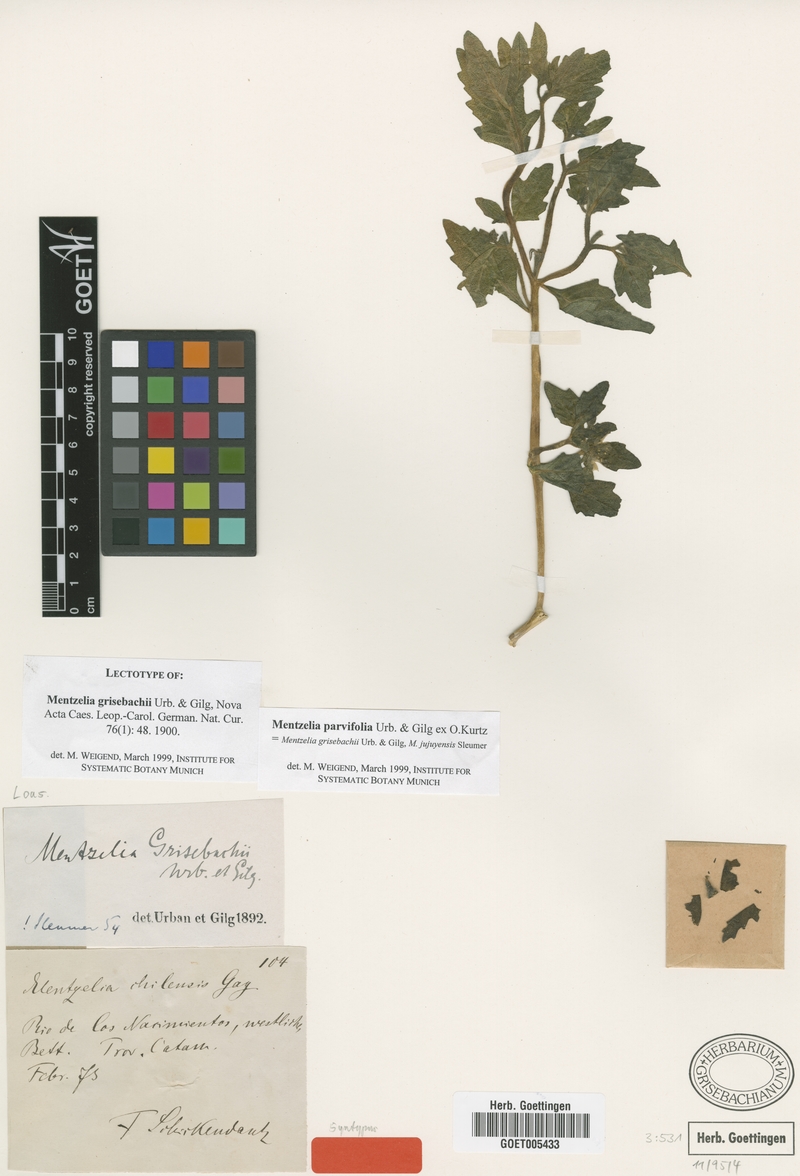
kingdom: Plantae
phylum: Tracheophyta
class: Magnoliopsida
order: Cornales
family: Loasaceae
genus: Mentzelia
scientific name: Mentzelia parvifolia
